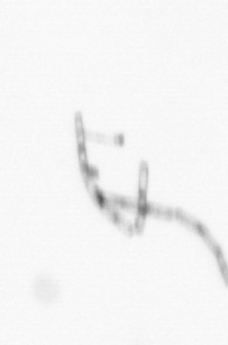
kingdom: Chromista
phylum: Ochrophyta
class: Bacillariophyceae
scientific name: Bacillariophyceae
